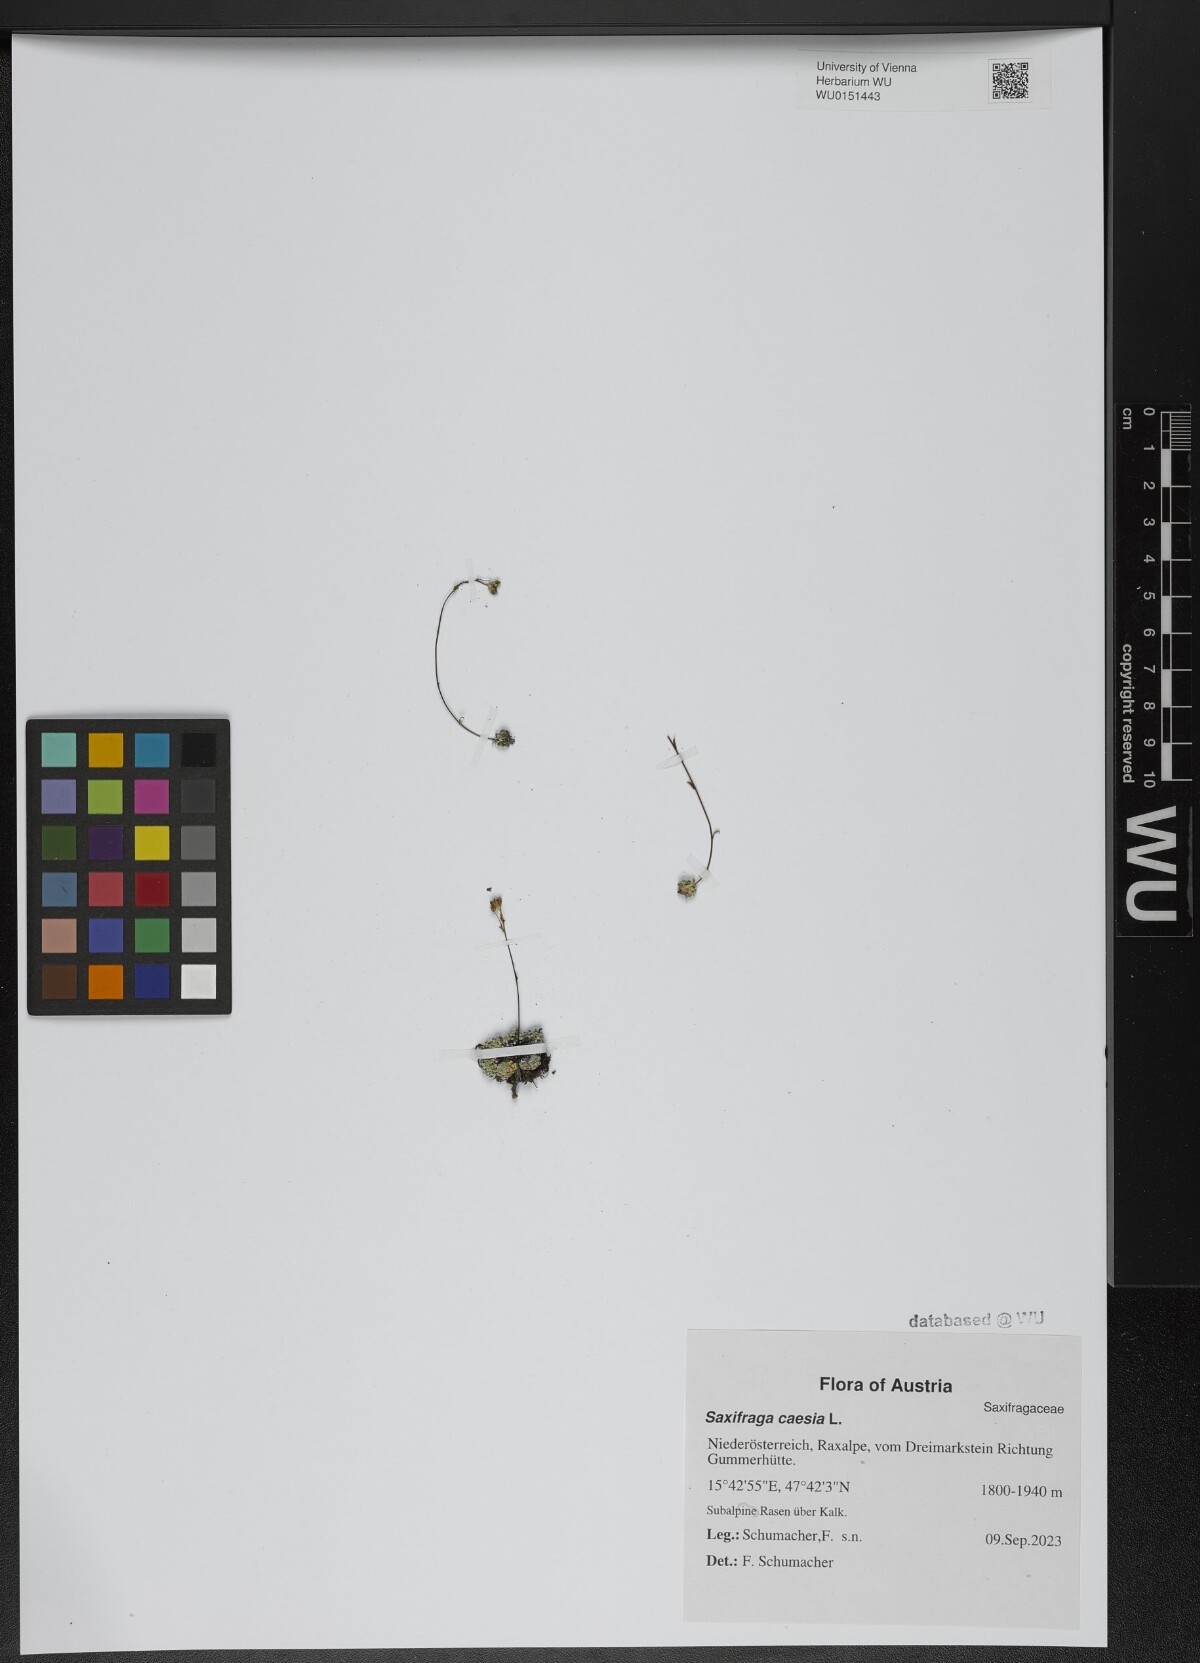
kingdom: Plantae
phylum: Tracheophyta
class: Magnoliopsida
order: Saxifragales
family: Saxifragaceae
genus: Saxifraga
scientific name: Saxifraga caesia
